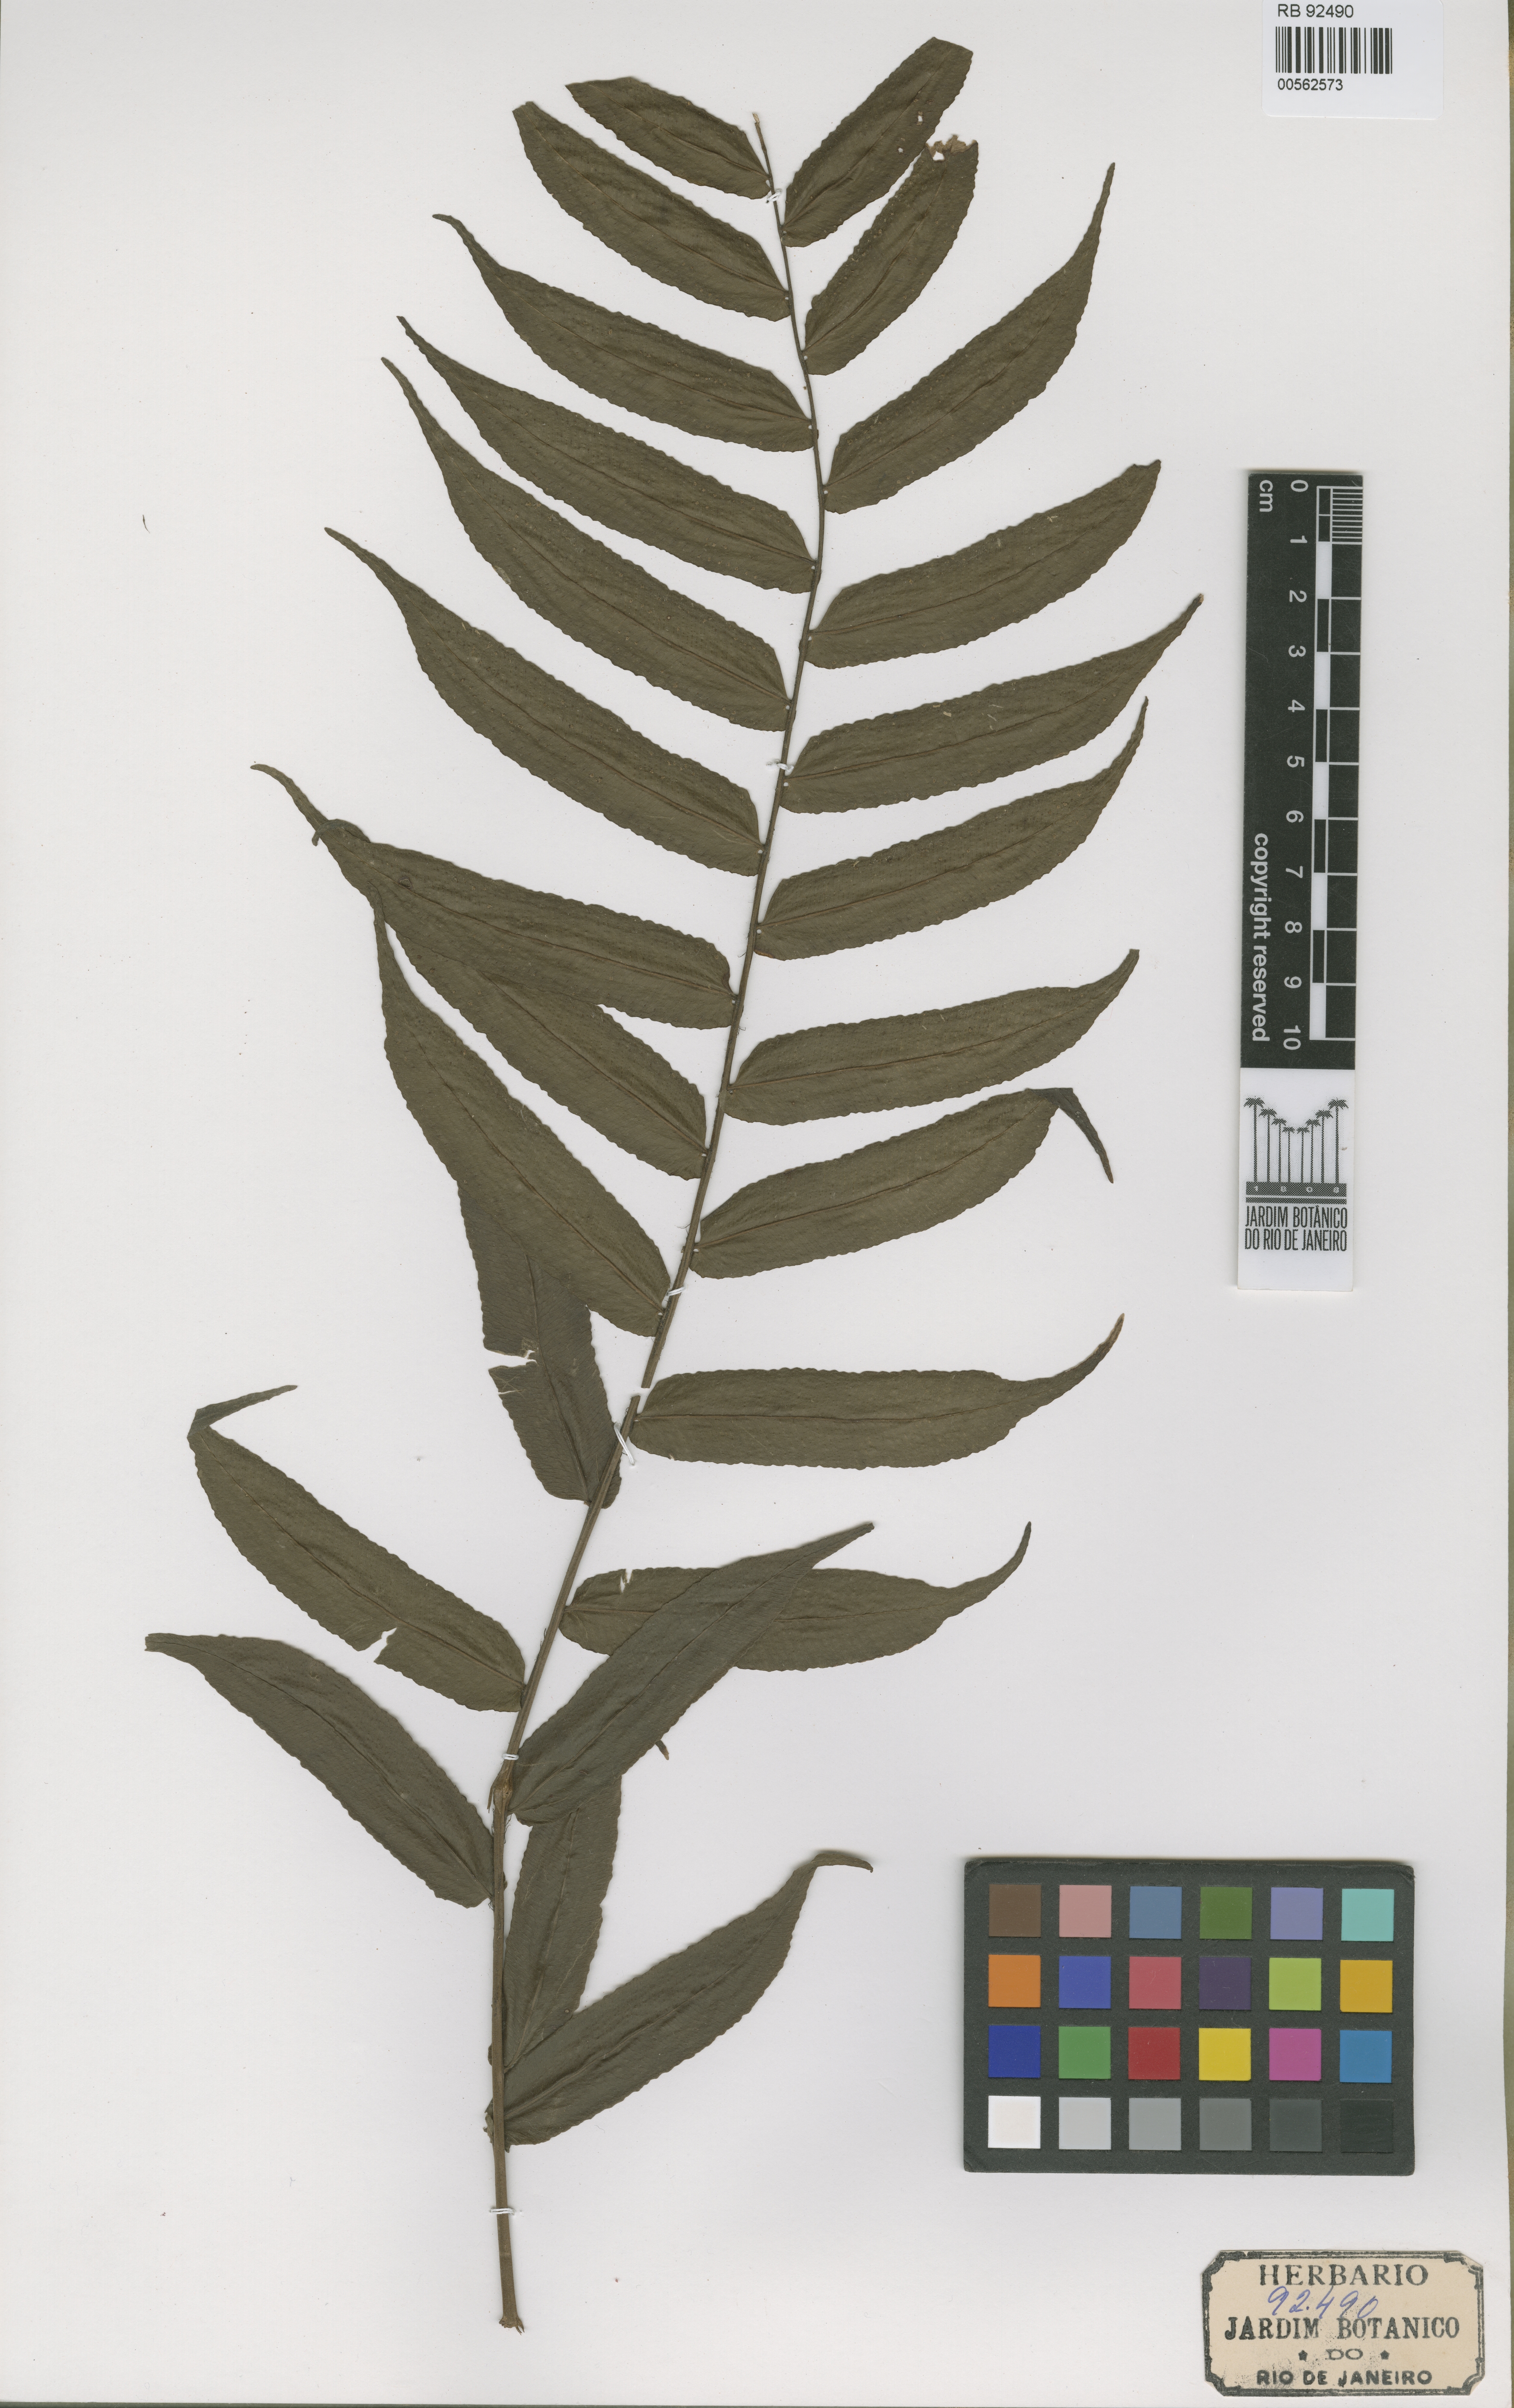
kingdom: Plantae
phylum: Tracheophyta
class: Polypodiopsida
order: Polypodiales
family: Lomariopsidaceae
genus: Cyclopeltis
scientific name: Cyclopeltis presliana
